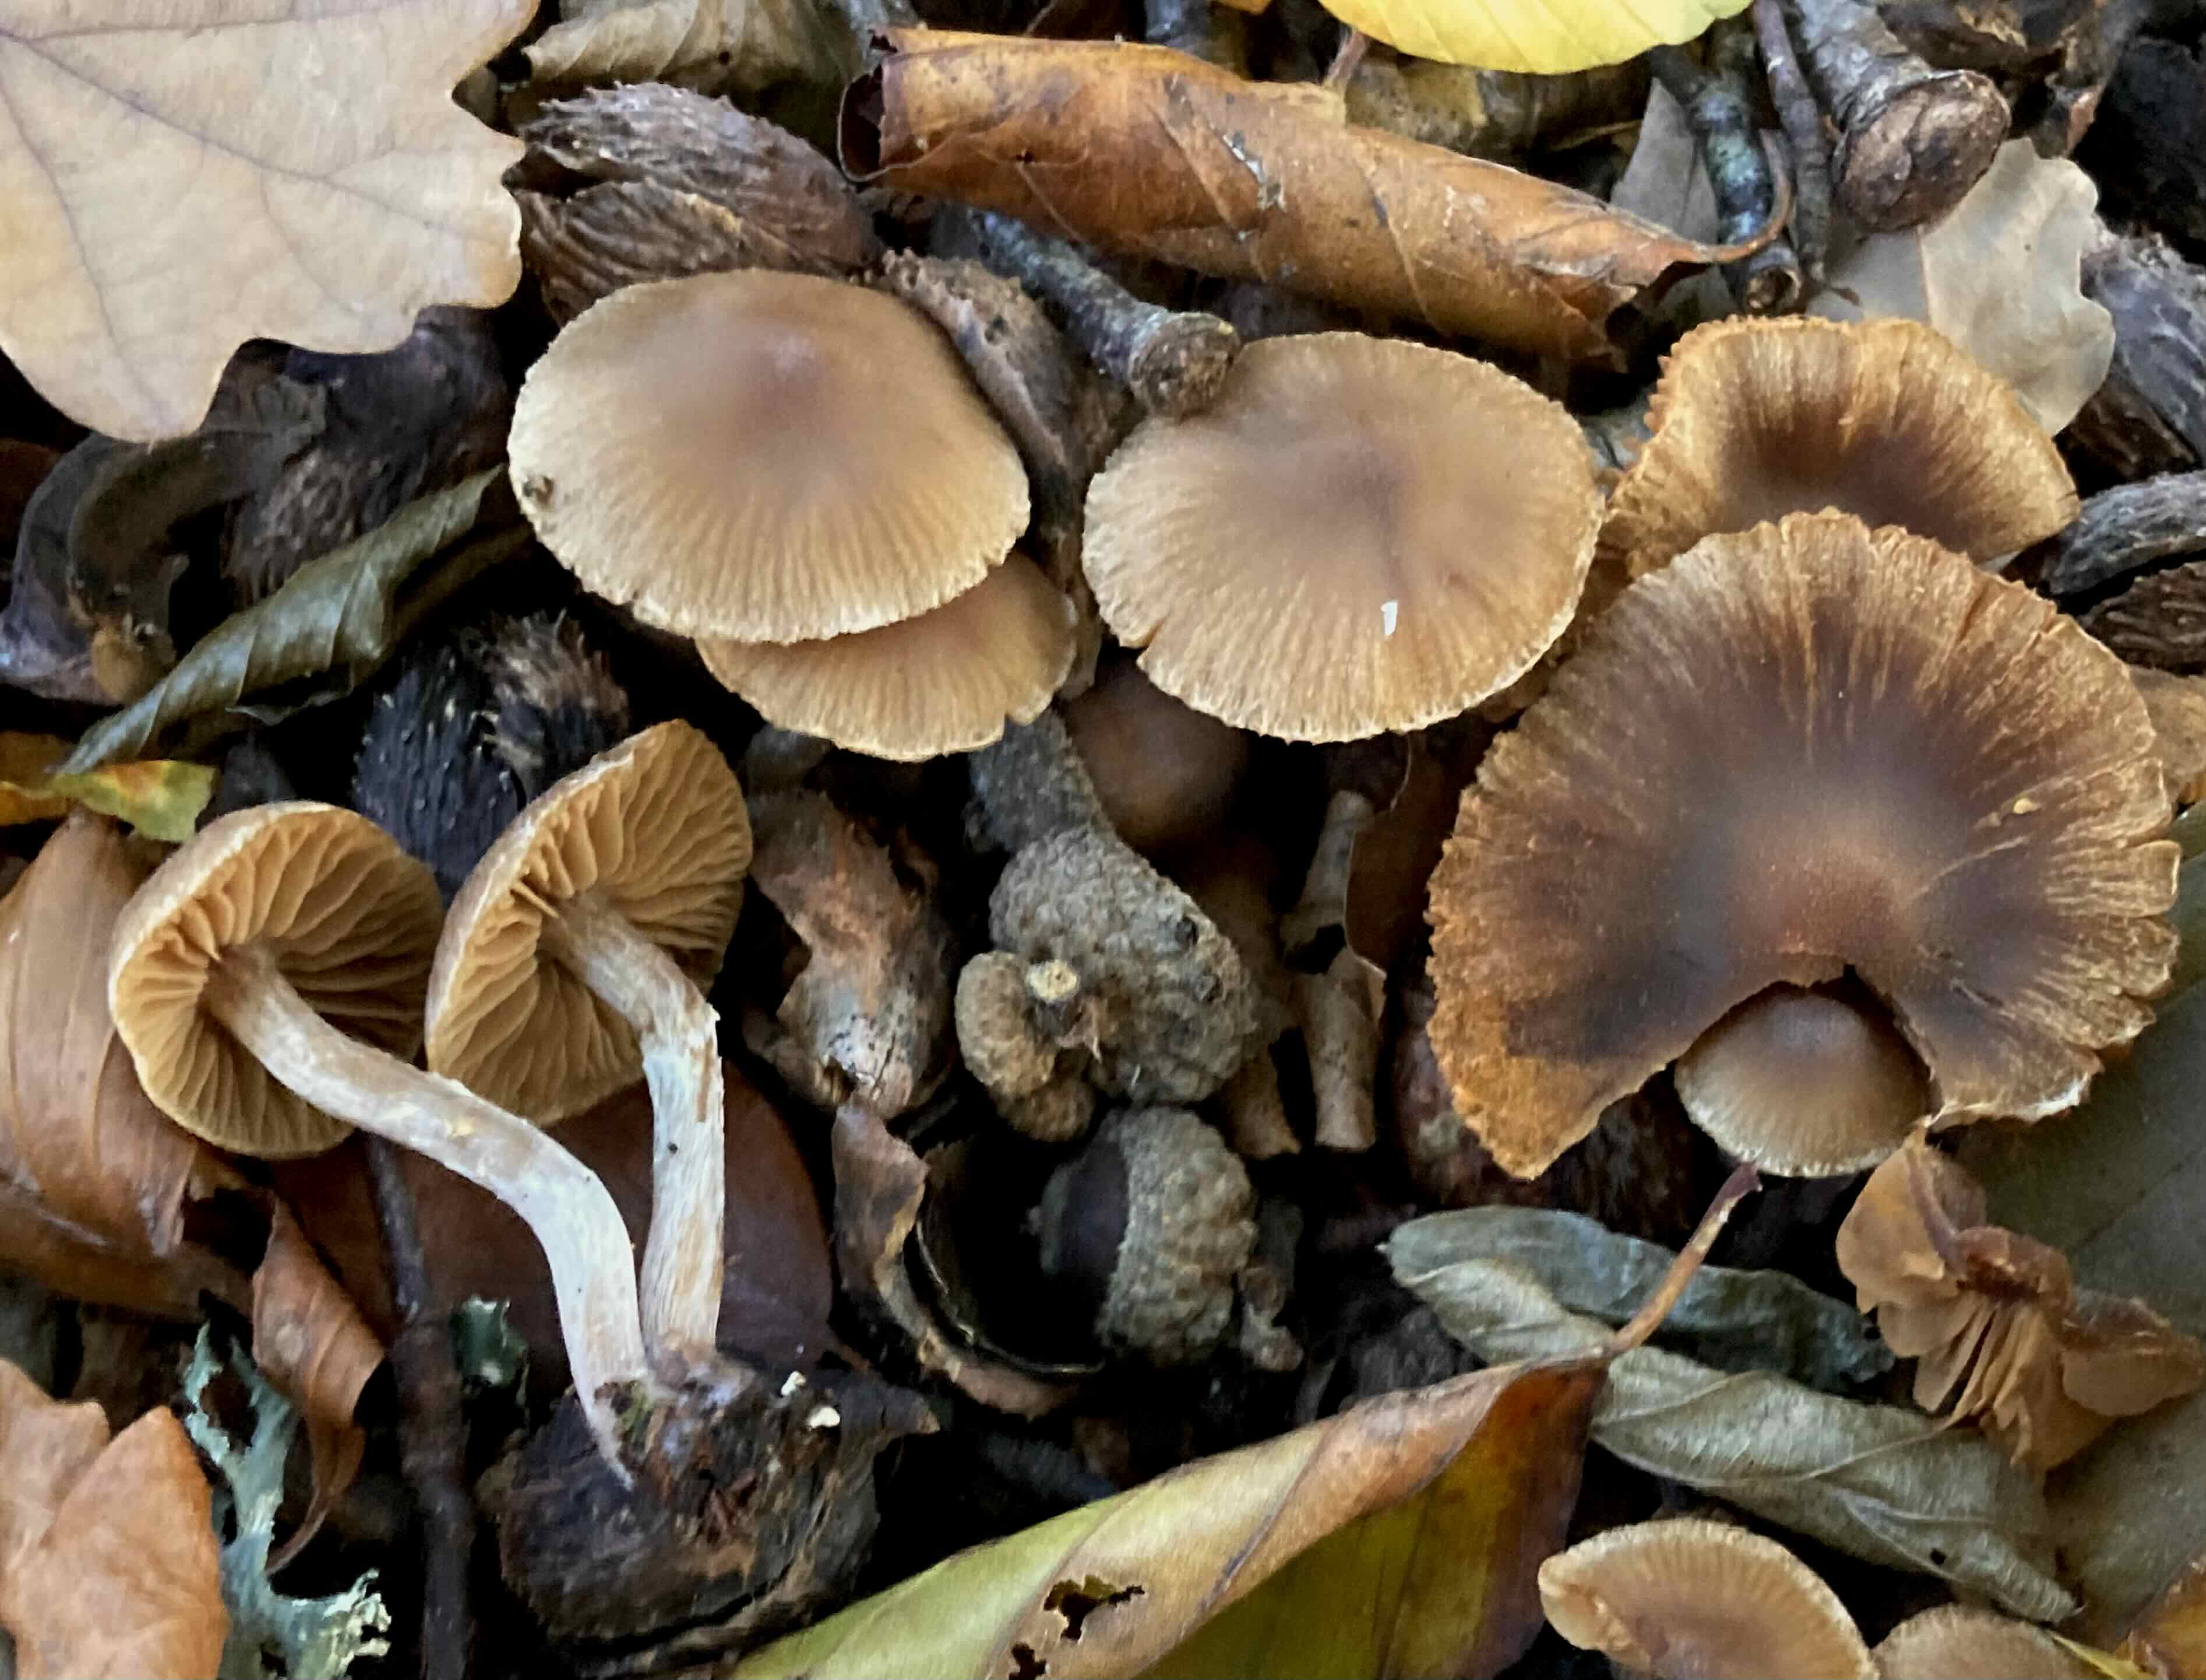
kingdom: Fungi
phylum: Basidiomycota
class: Agaricomycetes
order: Agaricales
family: Cortinariaceae
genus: Cortinarius
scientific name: Cortinarius
